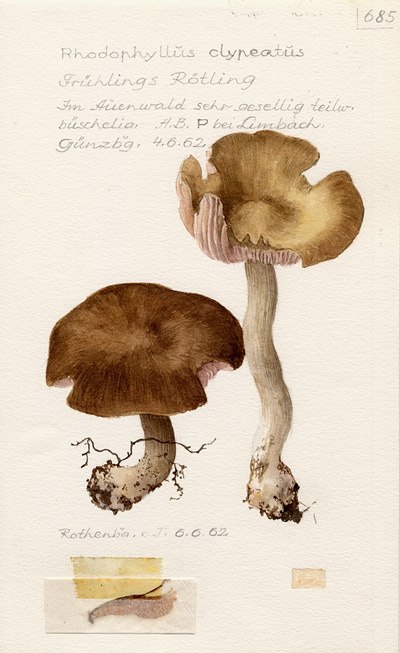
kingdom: Fungi
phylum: Basidiomycota
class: Agaricomycetes
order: Agaricales
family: Entolomataceae
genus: Entoloma
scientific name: Entoloma clypeatum
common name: Shield pinkgill
